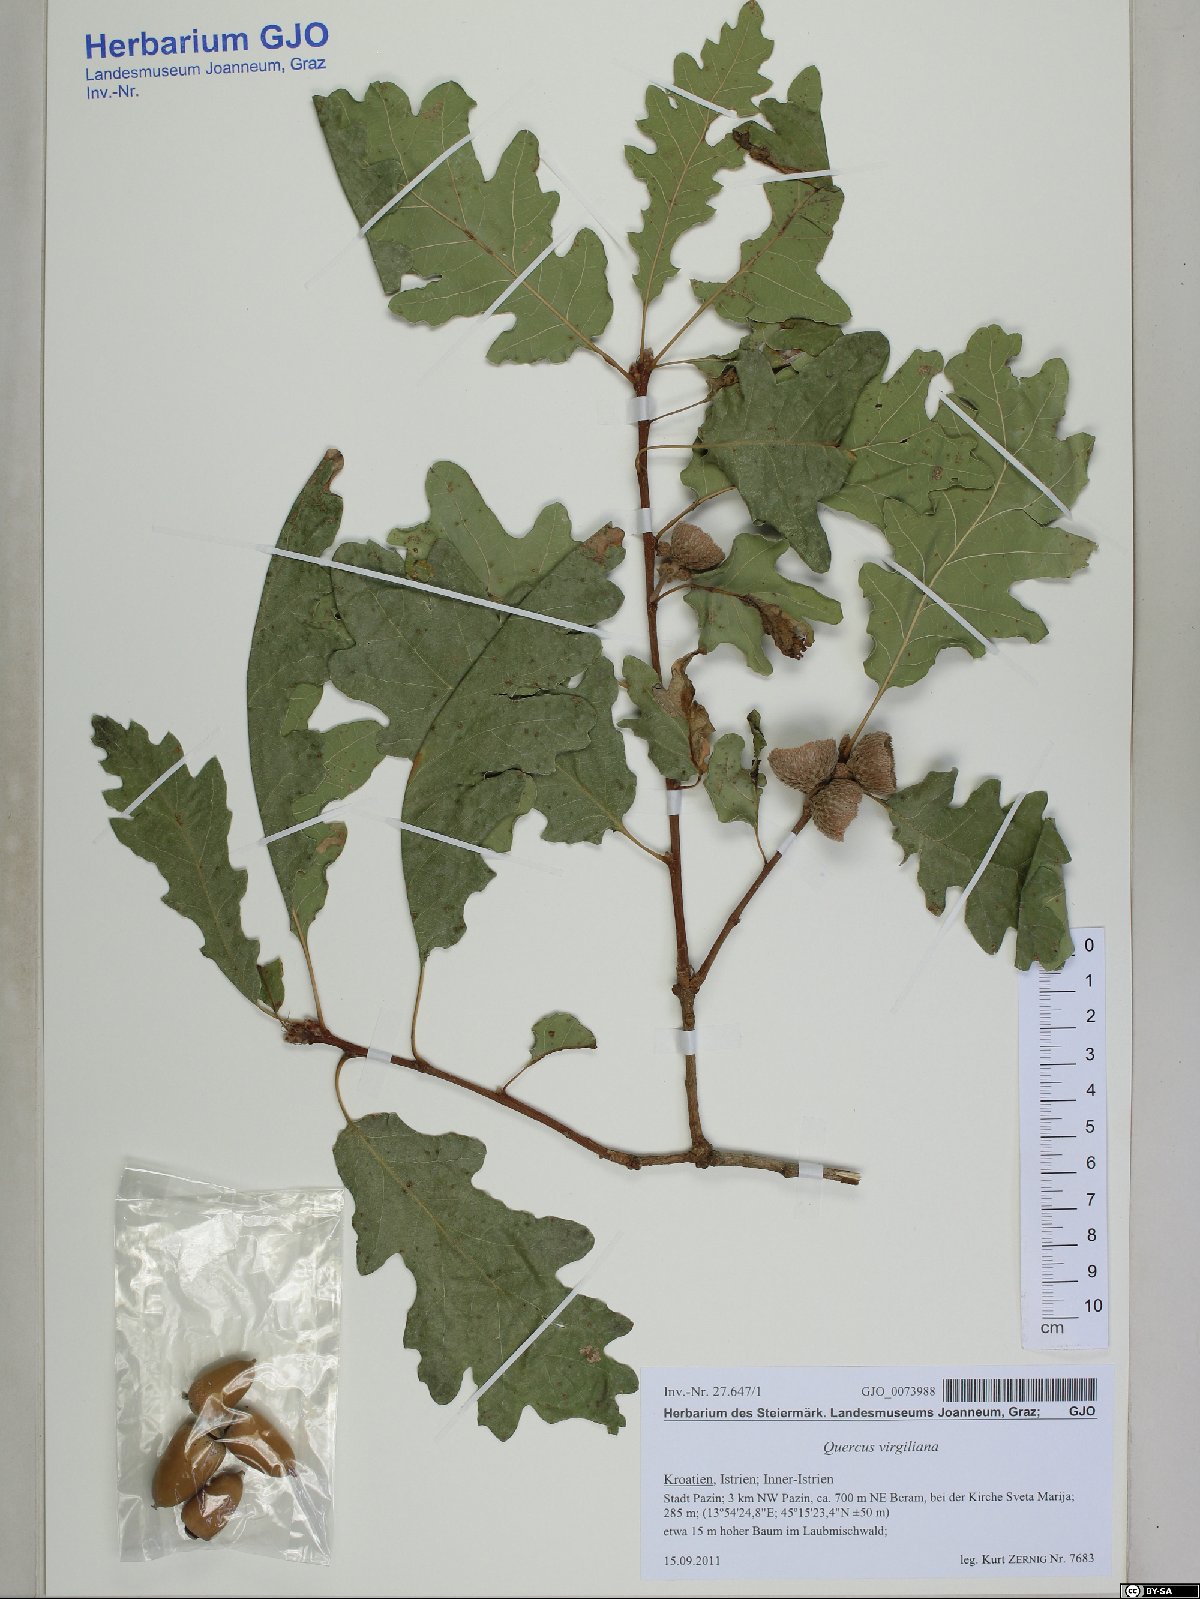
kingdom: Plantae
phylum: Tracheophyta
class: Magnoliopsida
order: Fagales
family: Fagaceae
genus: Quercus
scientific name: Quercus pubescens
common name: Downy oak
